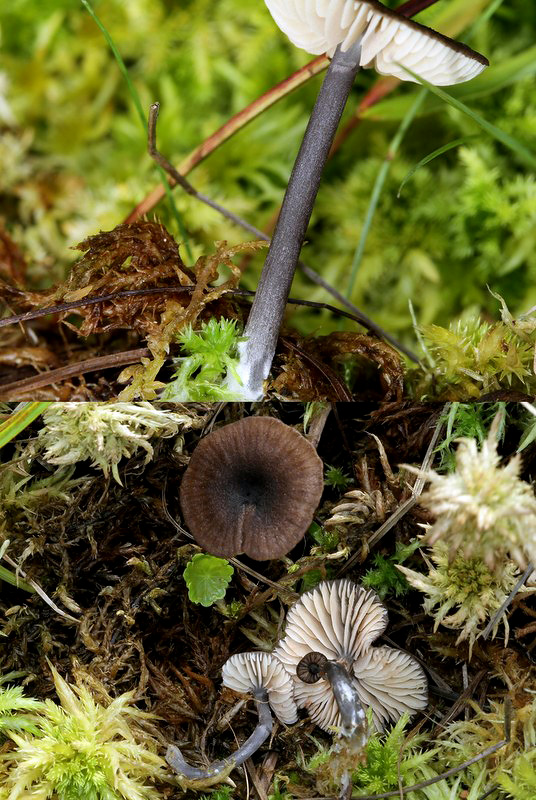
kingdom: Fungi
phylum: Basidiomycota
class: Agaricomycetes
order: Agaricales
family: Entolomataceae
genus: Entoloma
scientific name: Entoloma asprellum
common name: ru rødblad
